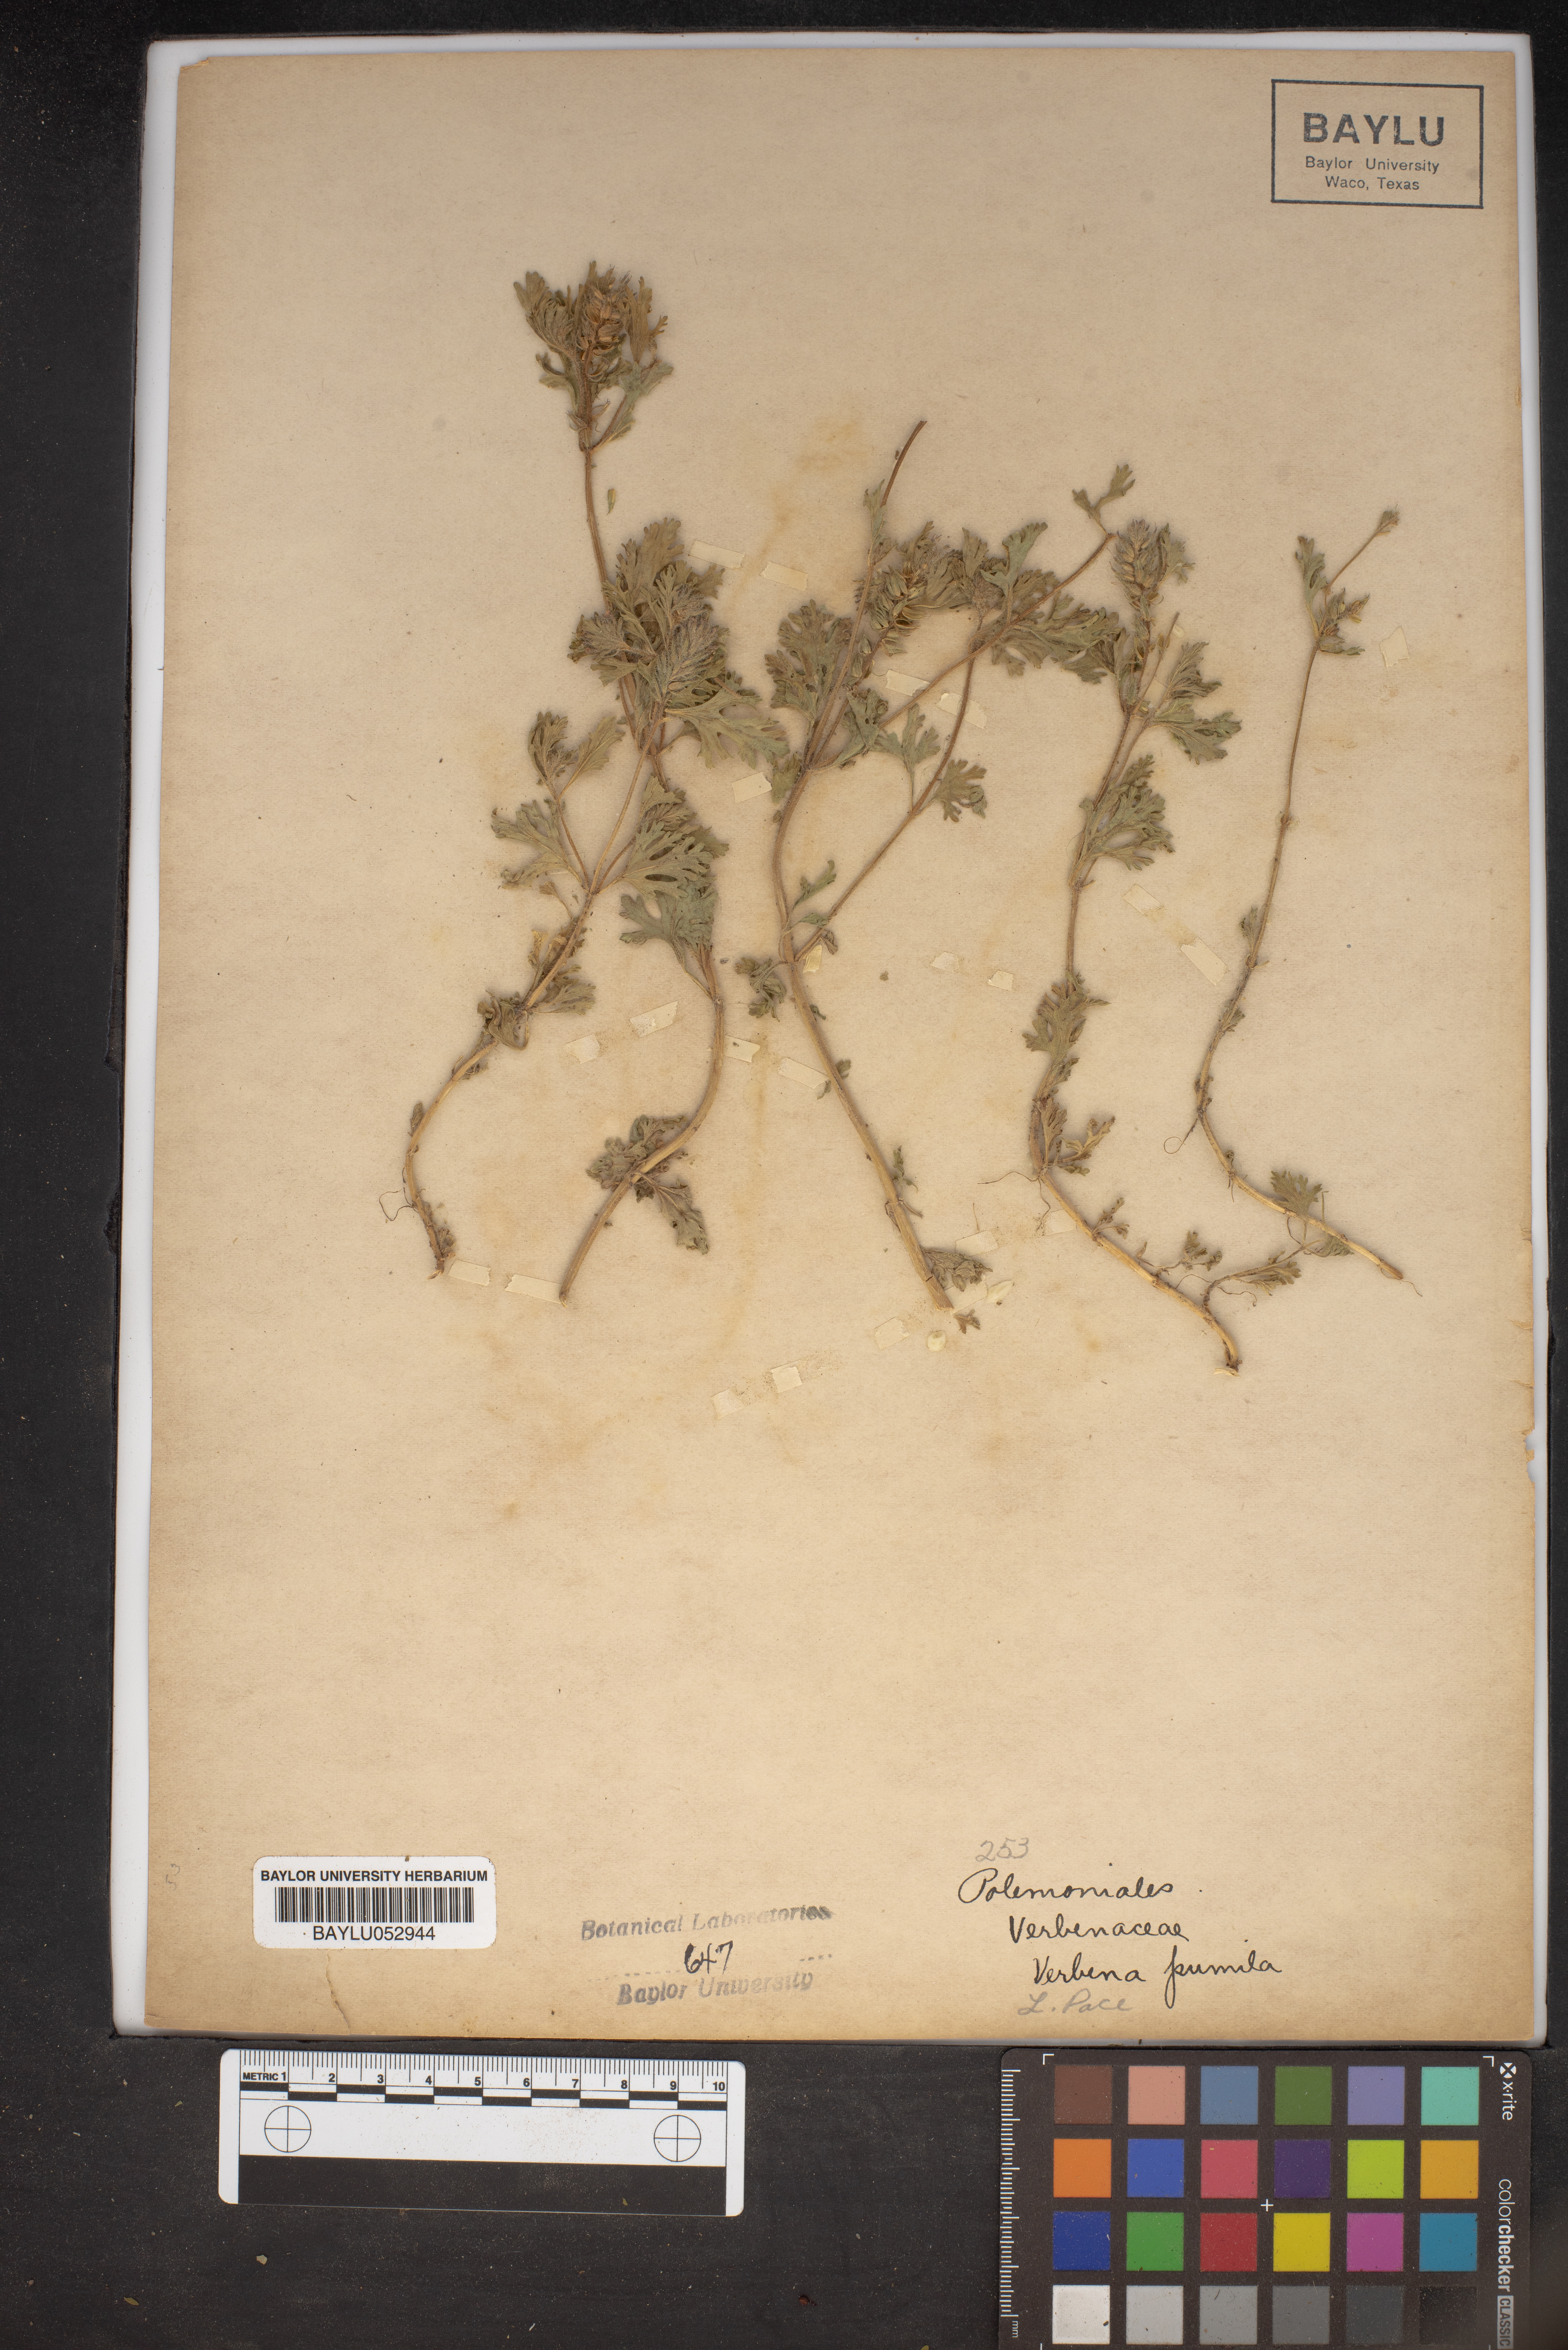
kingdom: Plantae
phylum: Tracheophyta
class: Magnoliopsida
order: Lamiales
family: Verbenaceae
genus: Verbena
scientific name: Verbena pumila
